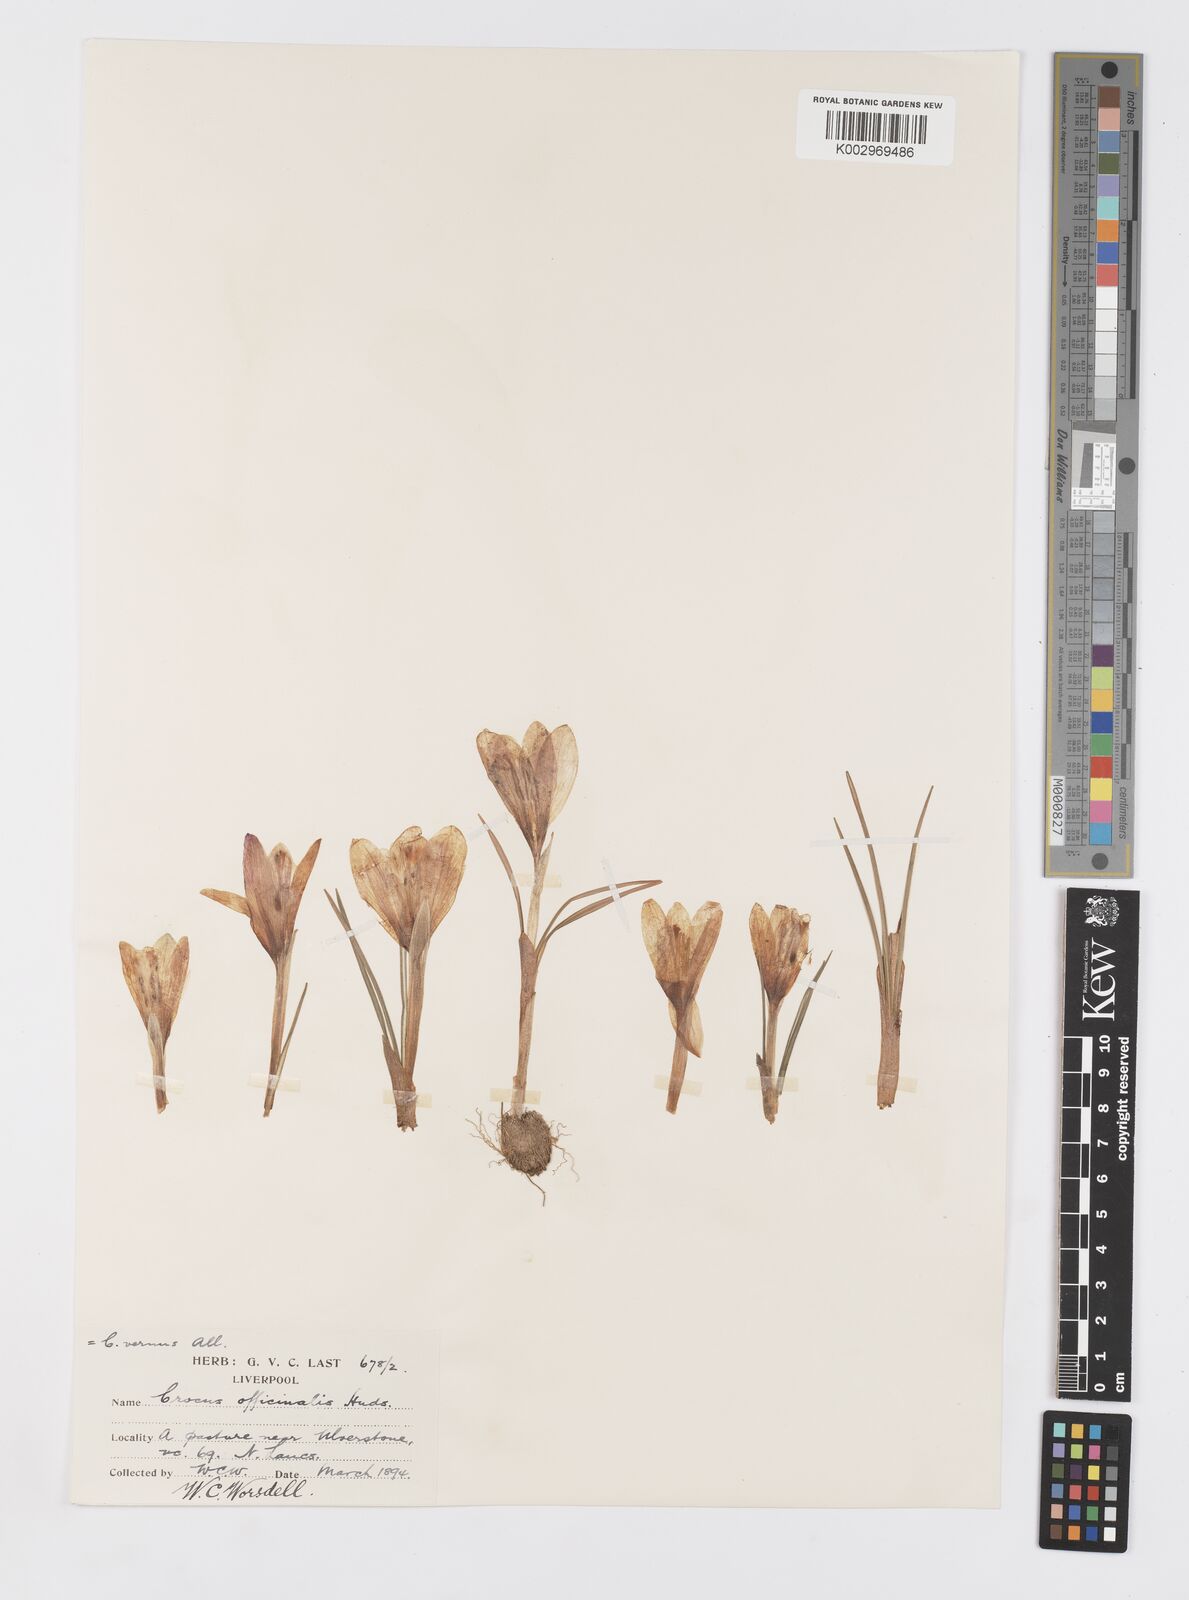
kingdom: Plantae
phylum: Tracheophyta
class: Liliopsida
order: Asparagales
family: Iridaceae
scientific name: Iridaceae
